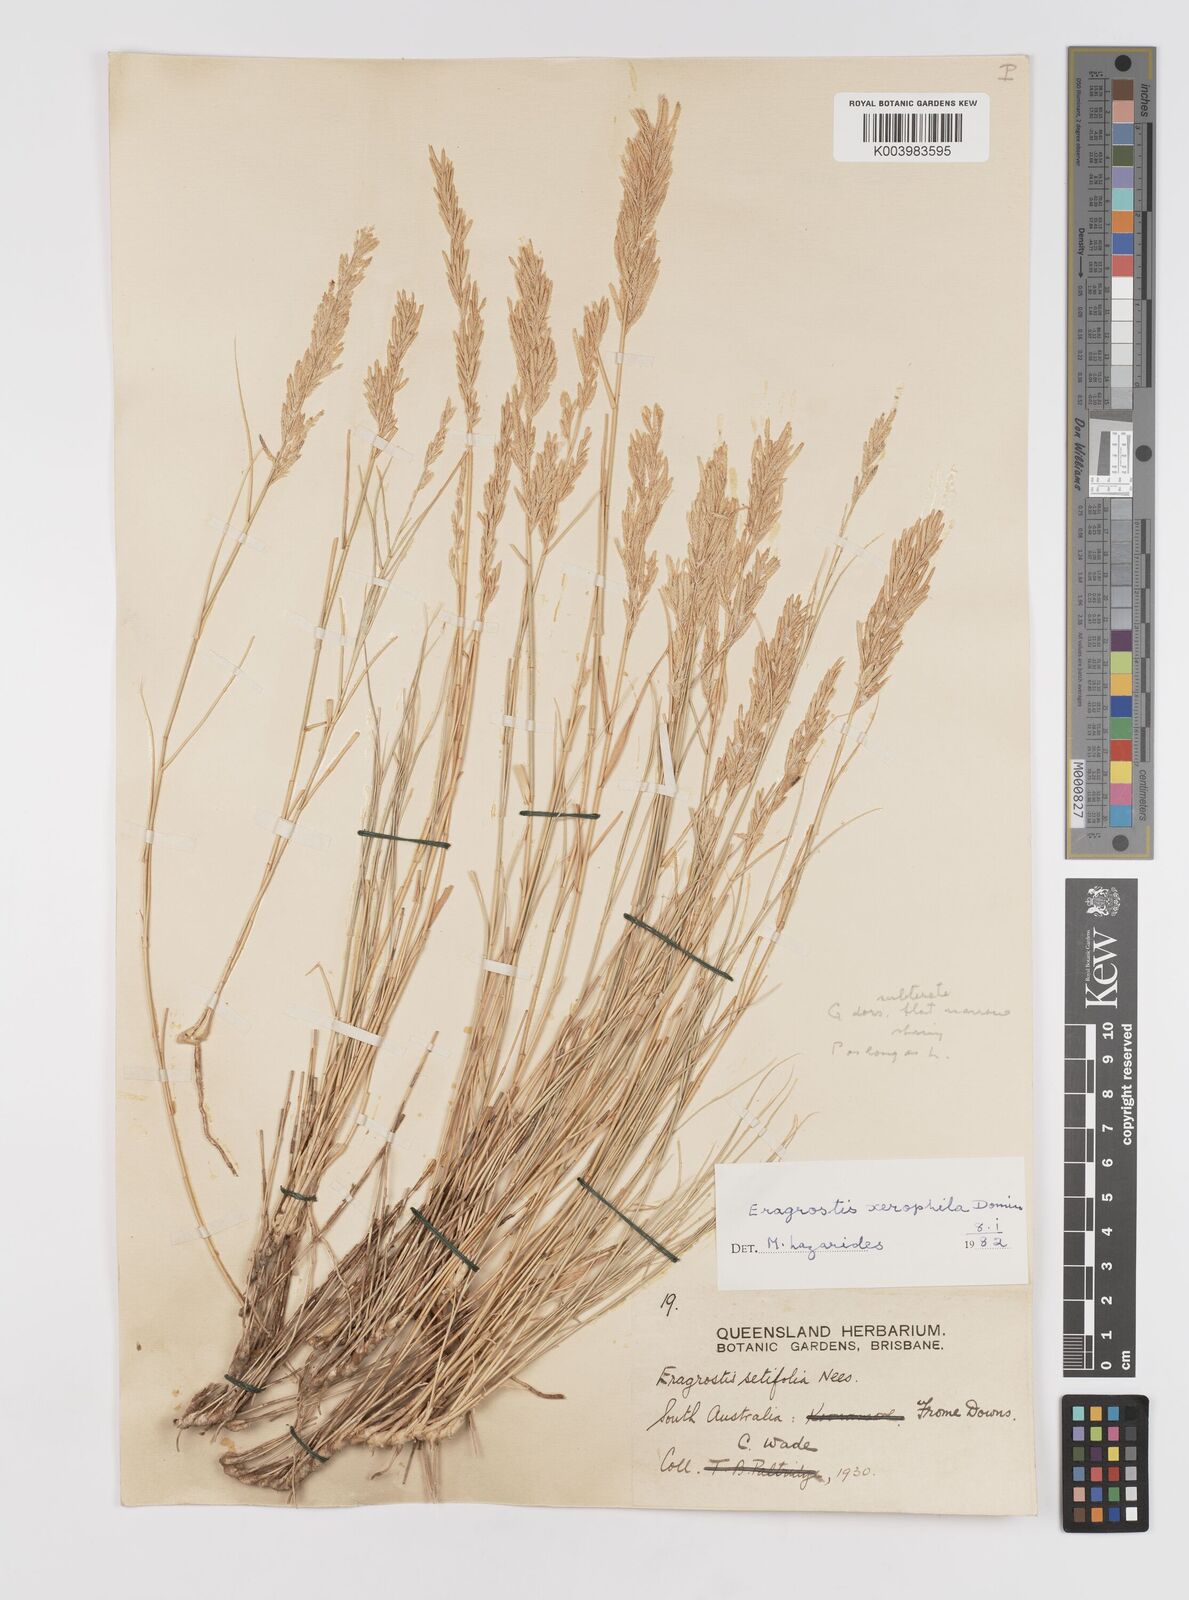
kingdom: Plantae
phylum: Tracheophyta
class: Liliopsida
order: Poales
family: Poaceae
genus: Eragrostis
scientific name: Eragrostis xerophila
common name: Wire wandarrie grass
